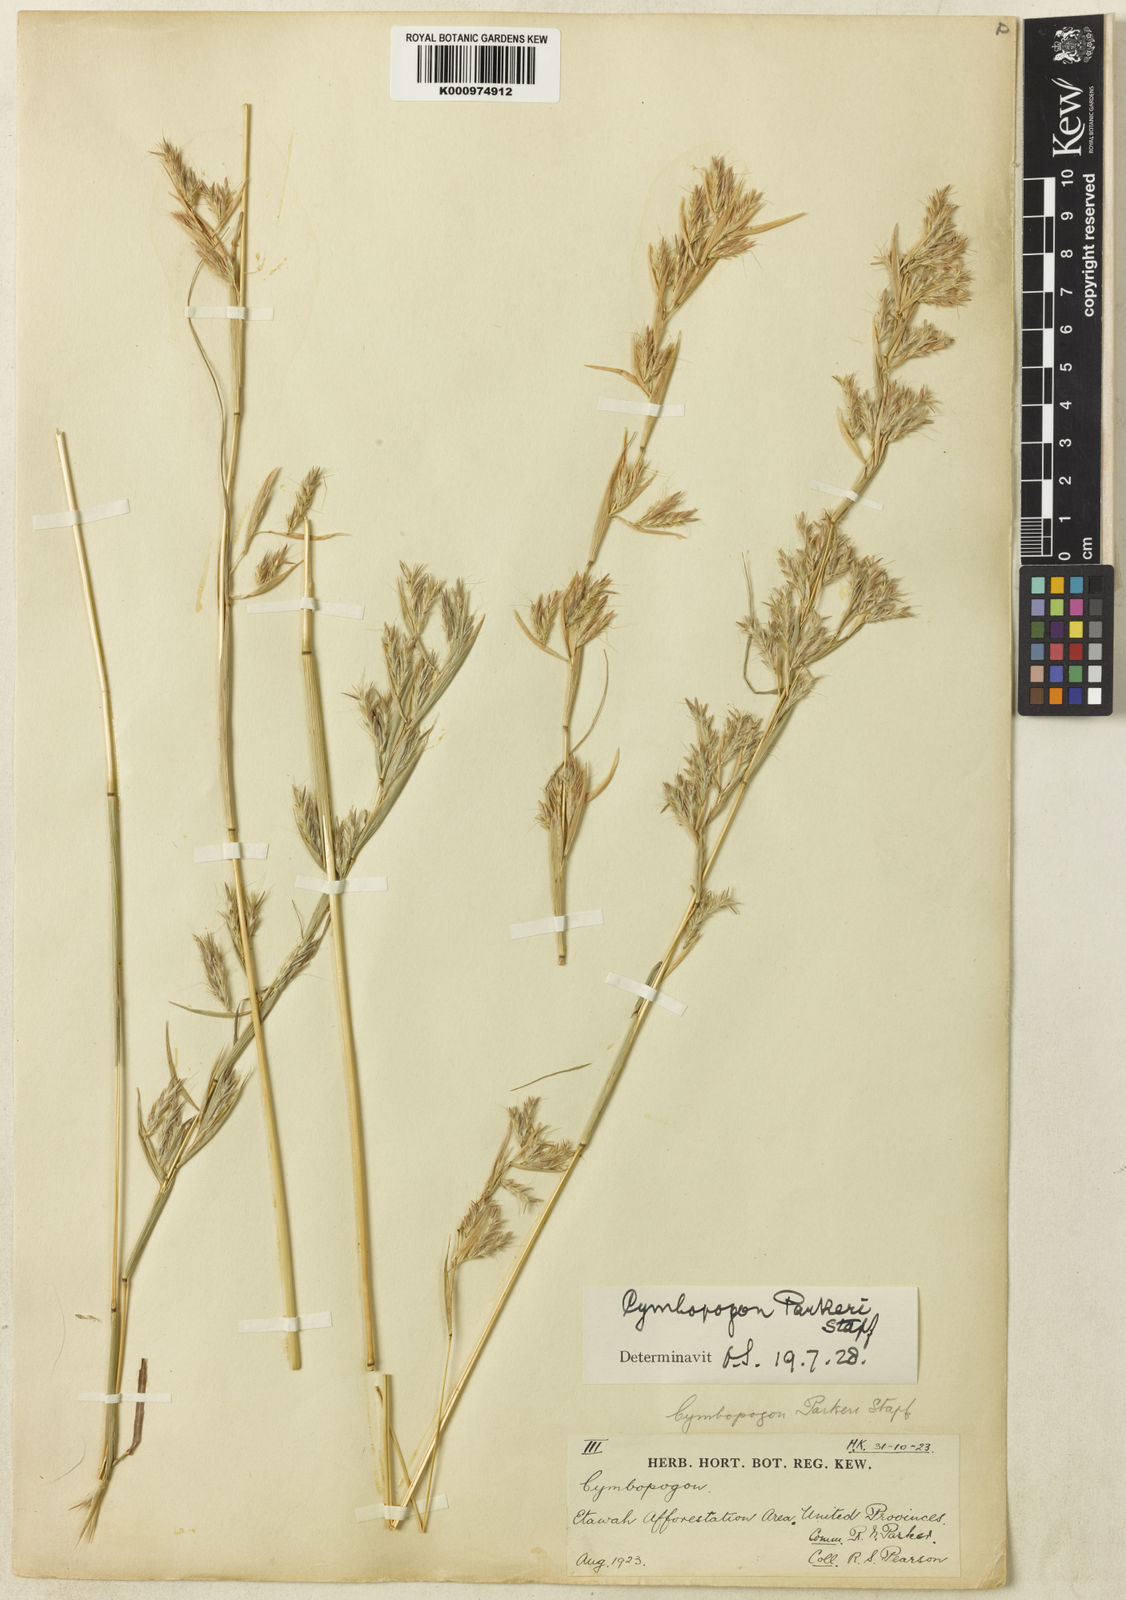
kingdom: Plantae
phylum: Tracheophyta
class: Liliopsida
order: Poales
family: Poaceae
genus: Cymbopogon
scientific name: Cymbopogon commutatus
